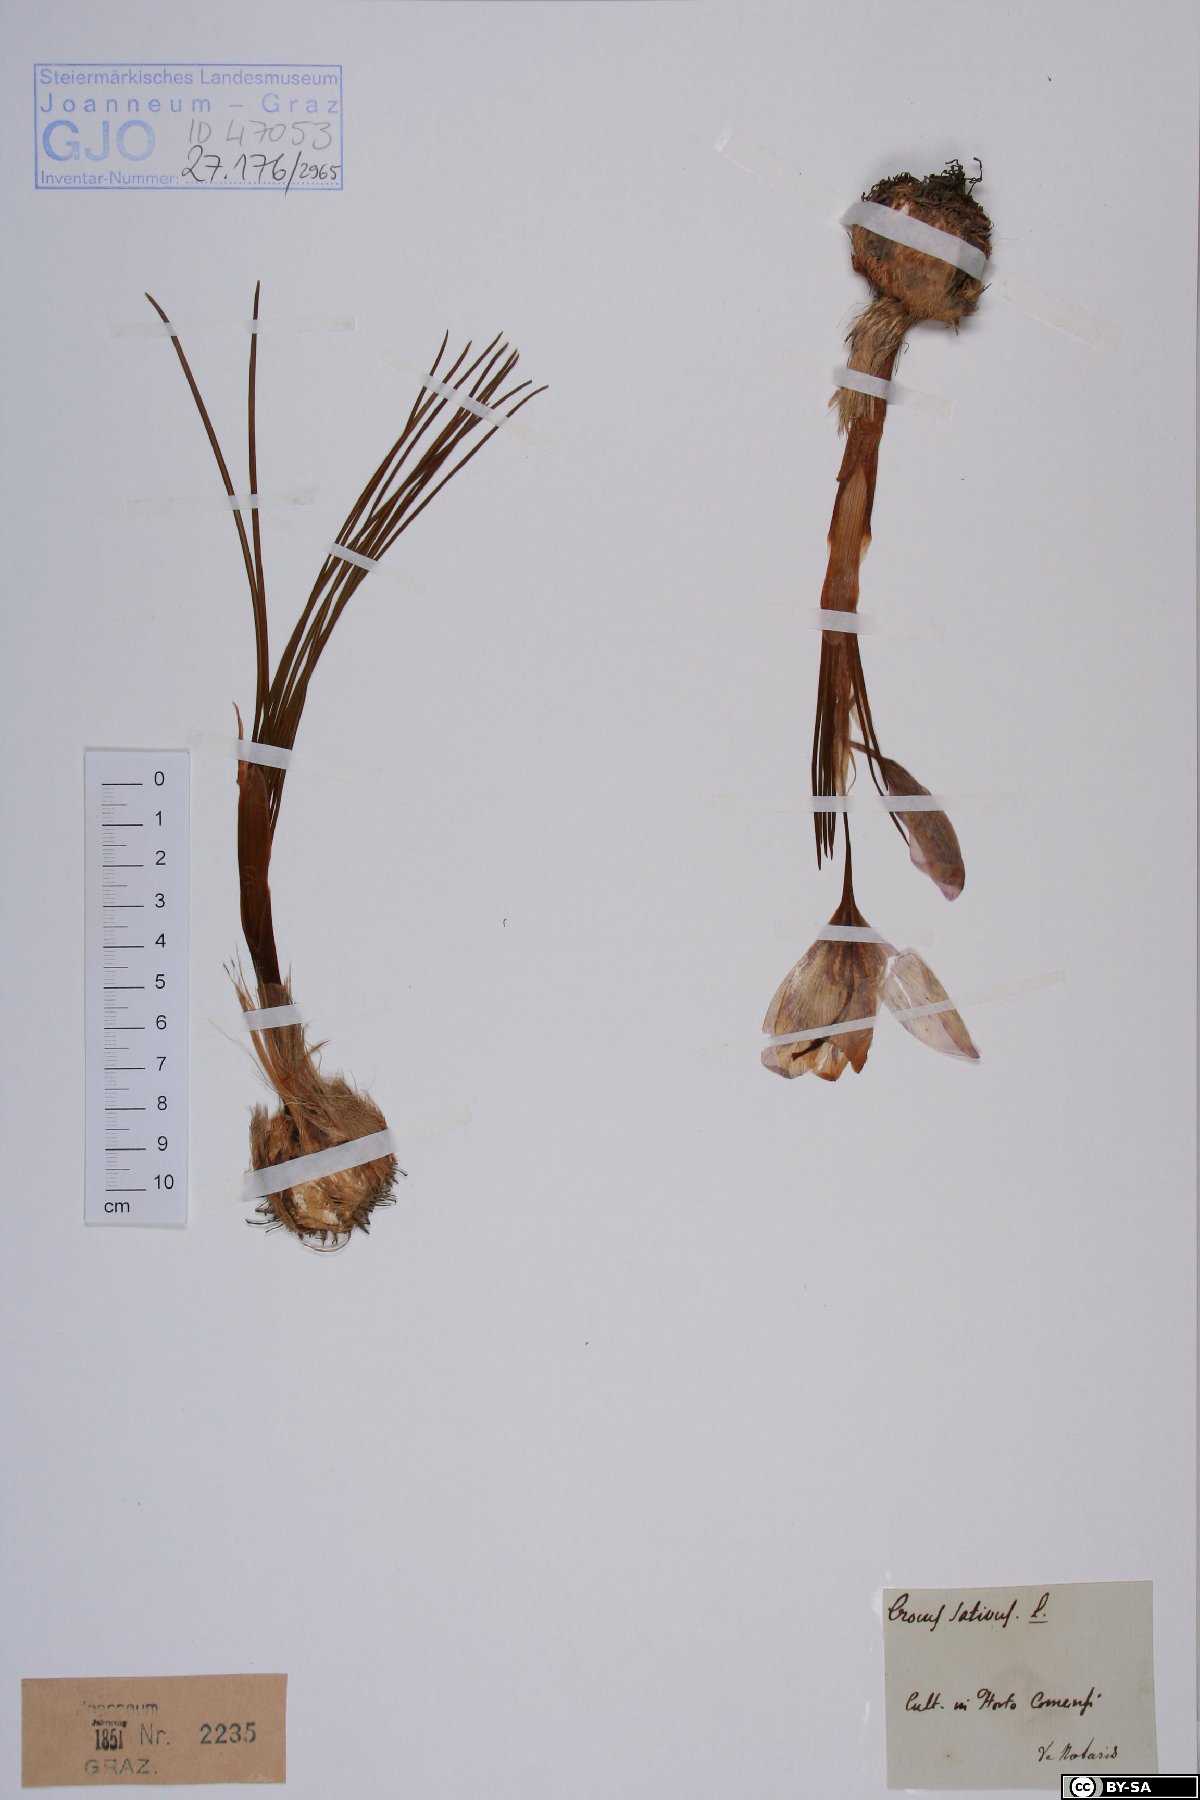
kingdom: Plantae
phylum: Tracheophyta
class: Liliopsida
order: Asparagales
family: Iridaceae
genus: Crocus
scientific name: Crocus sativus
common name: Saffron crocus
